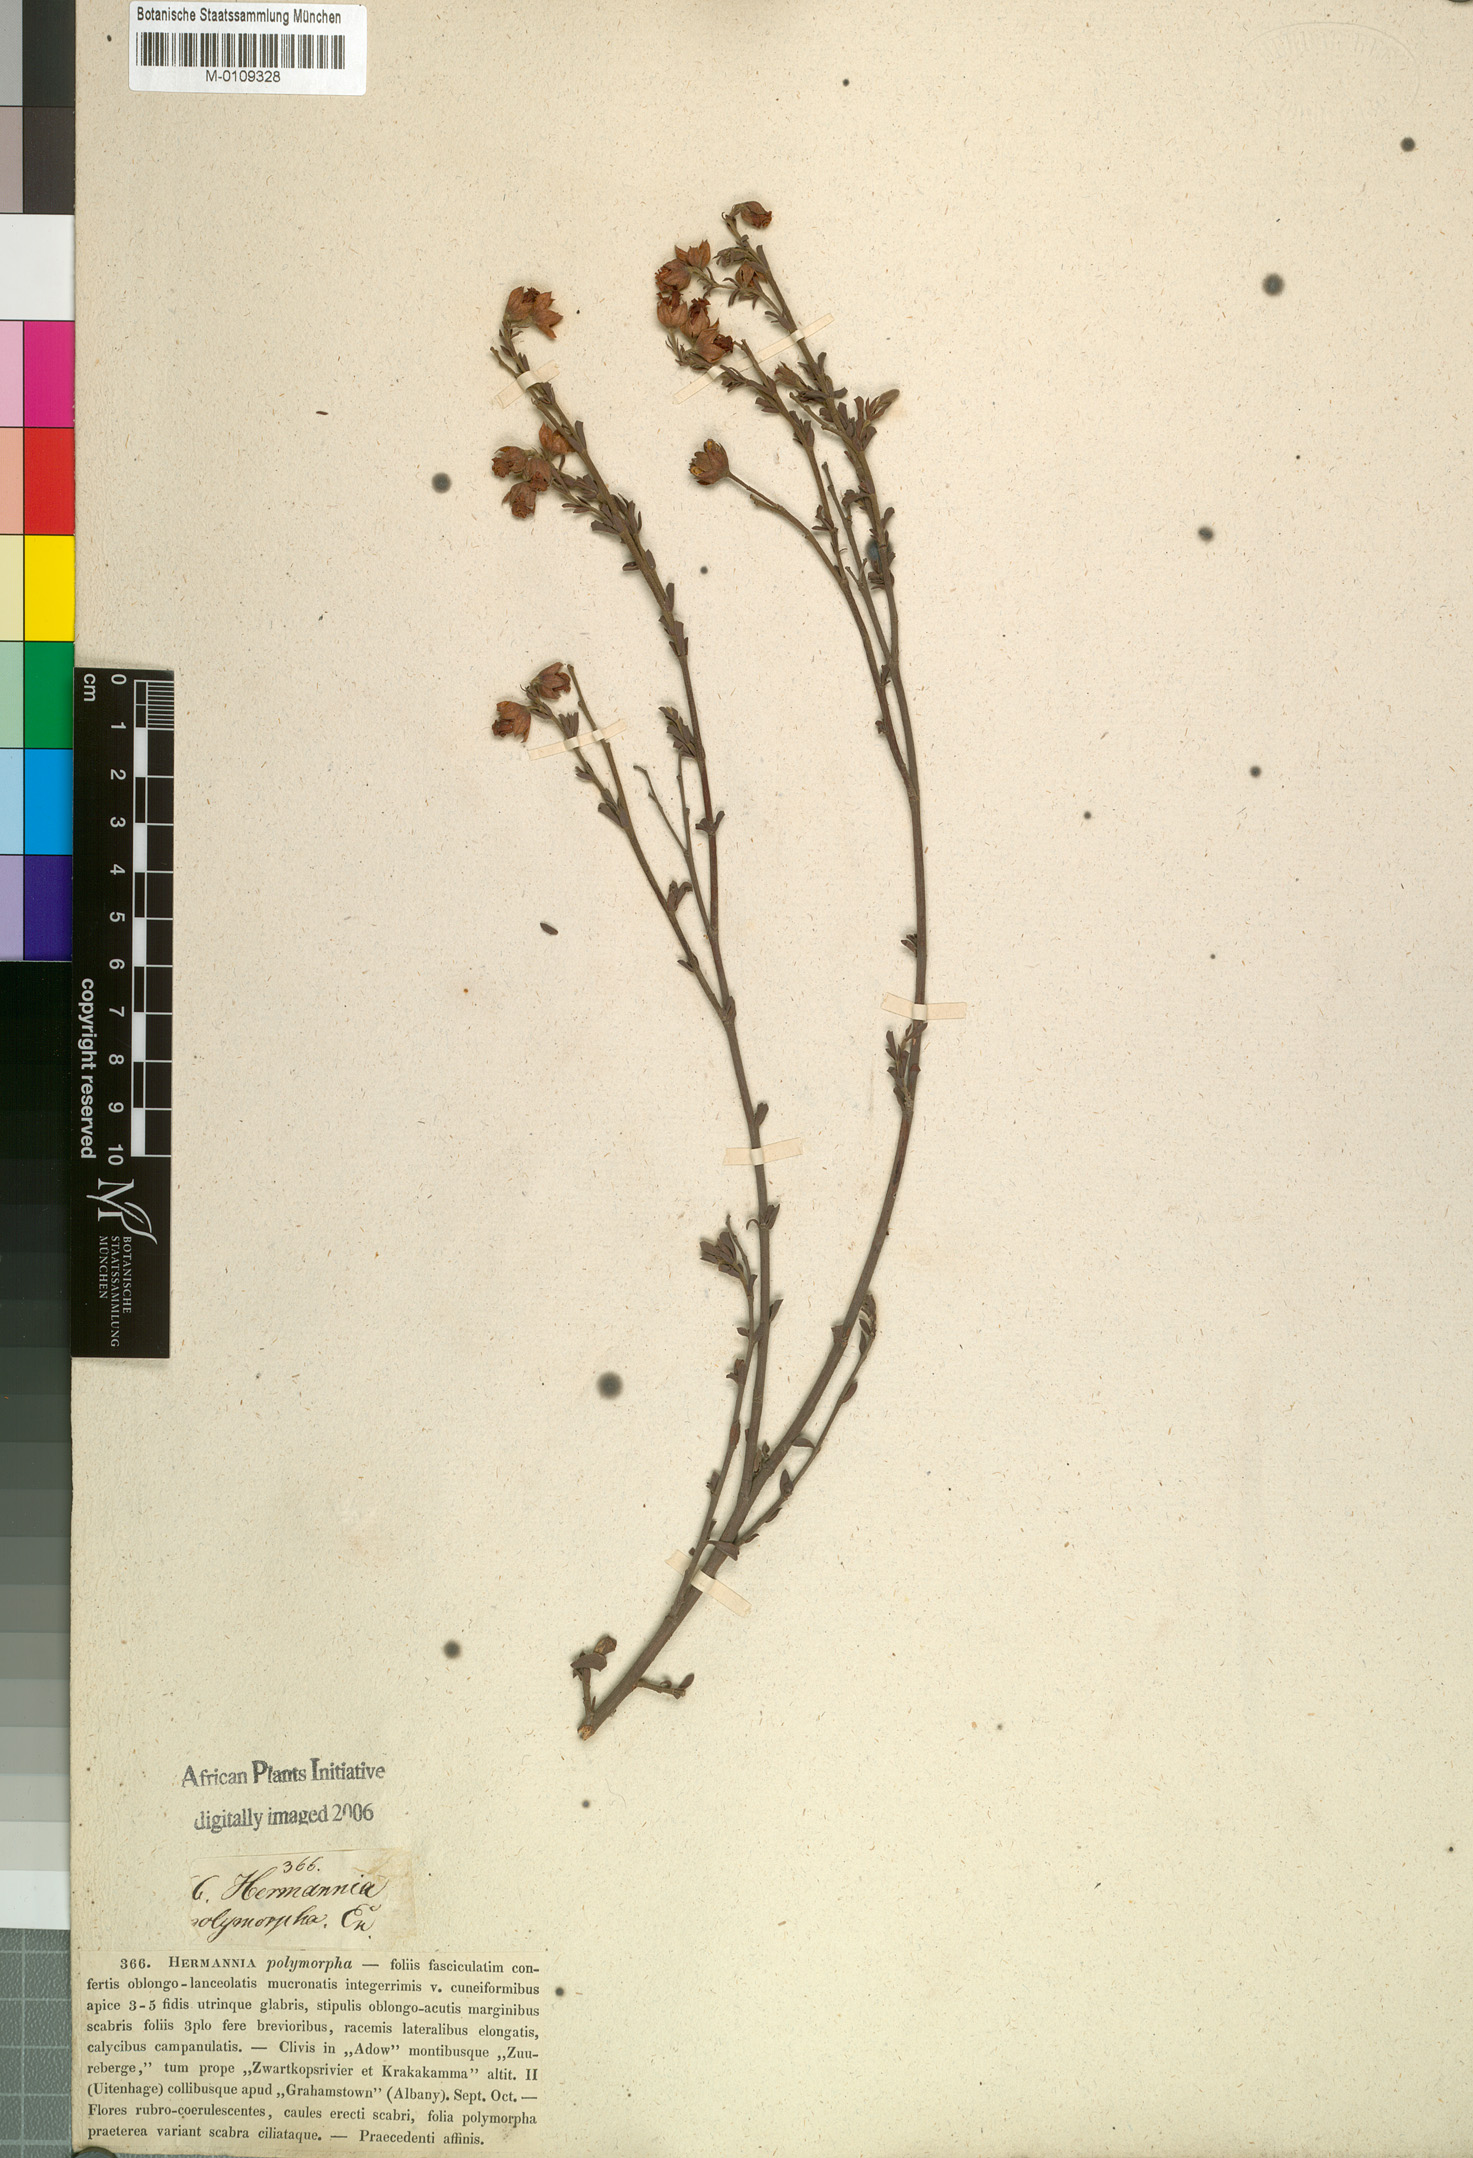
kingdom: Plantae
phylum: Tracheophyta
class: Magnoliopsida
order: Malvales
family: Malvaceae
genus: Hermannia
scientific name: Hermannia flammea
